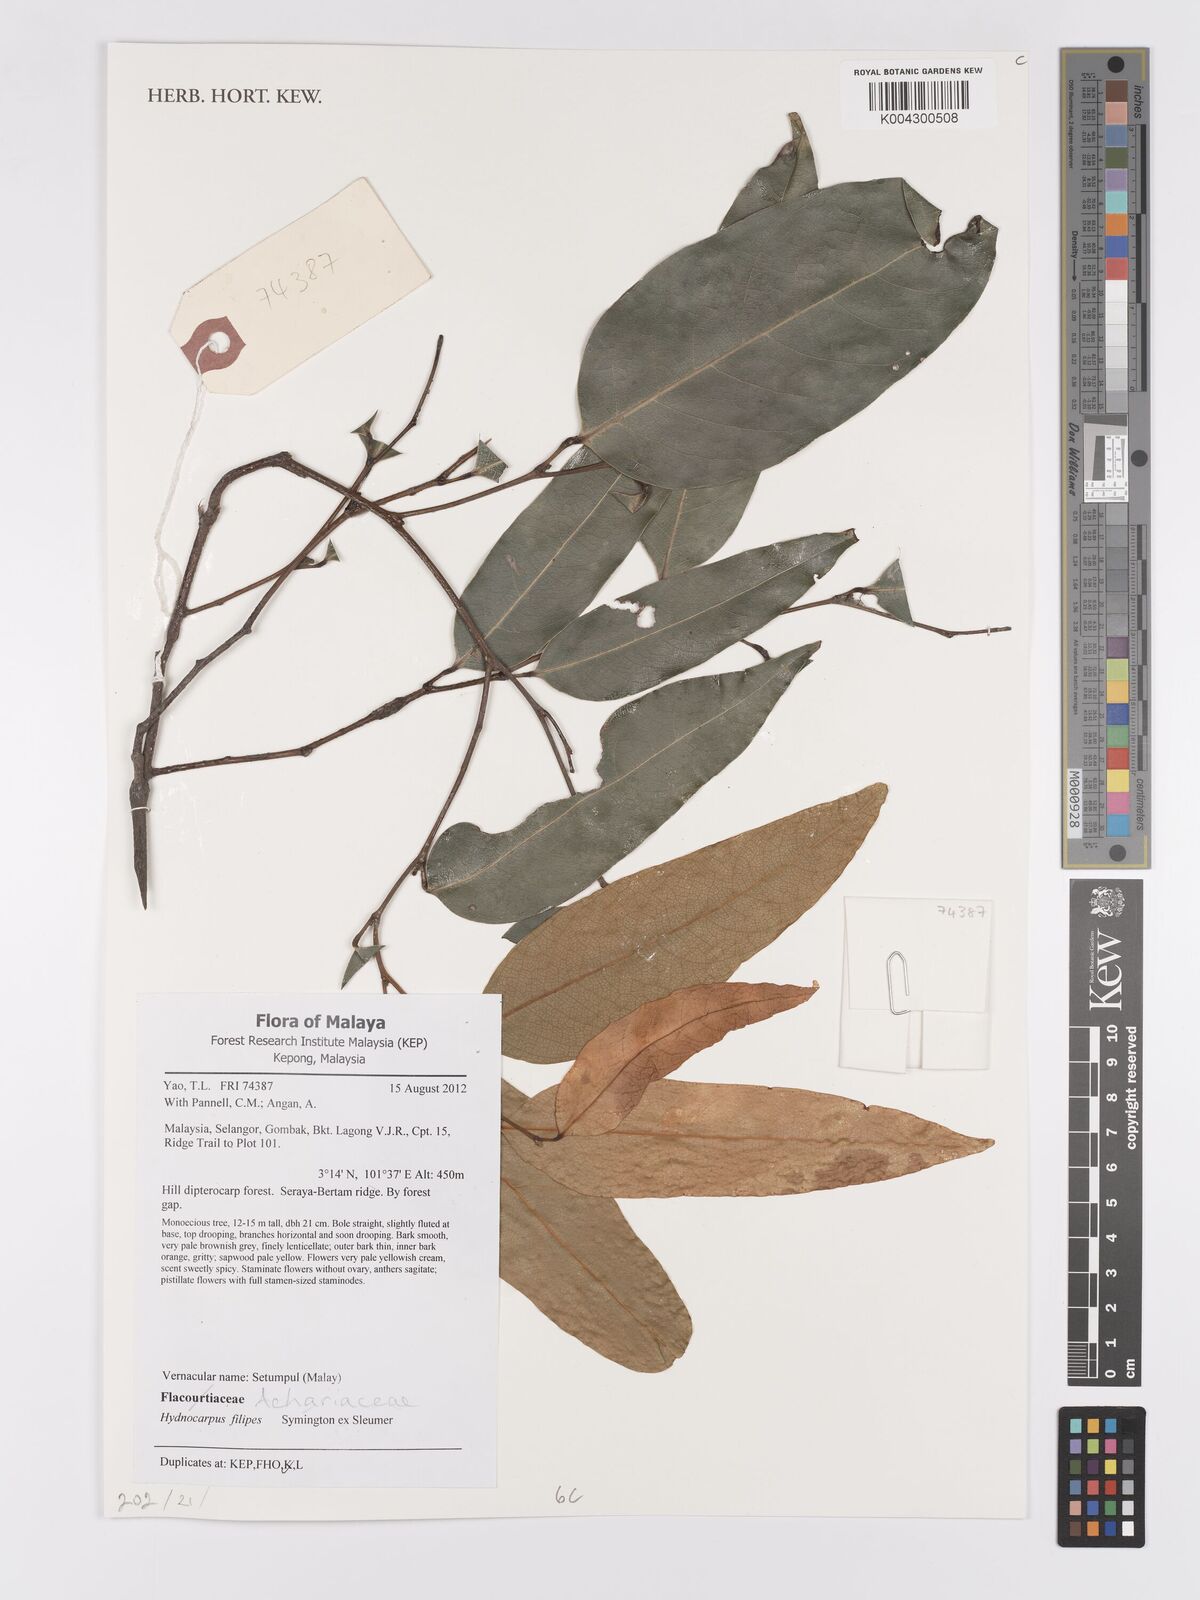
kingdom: Plantae
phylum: Tracheophyta
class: Magnoliopsida
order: Malpighiales
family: Achariaceae
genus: Hydnocarpus
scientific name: Hydnocarpus filipes
